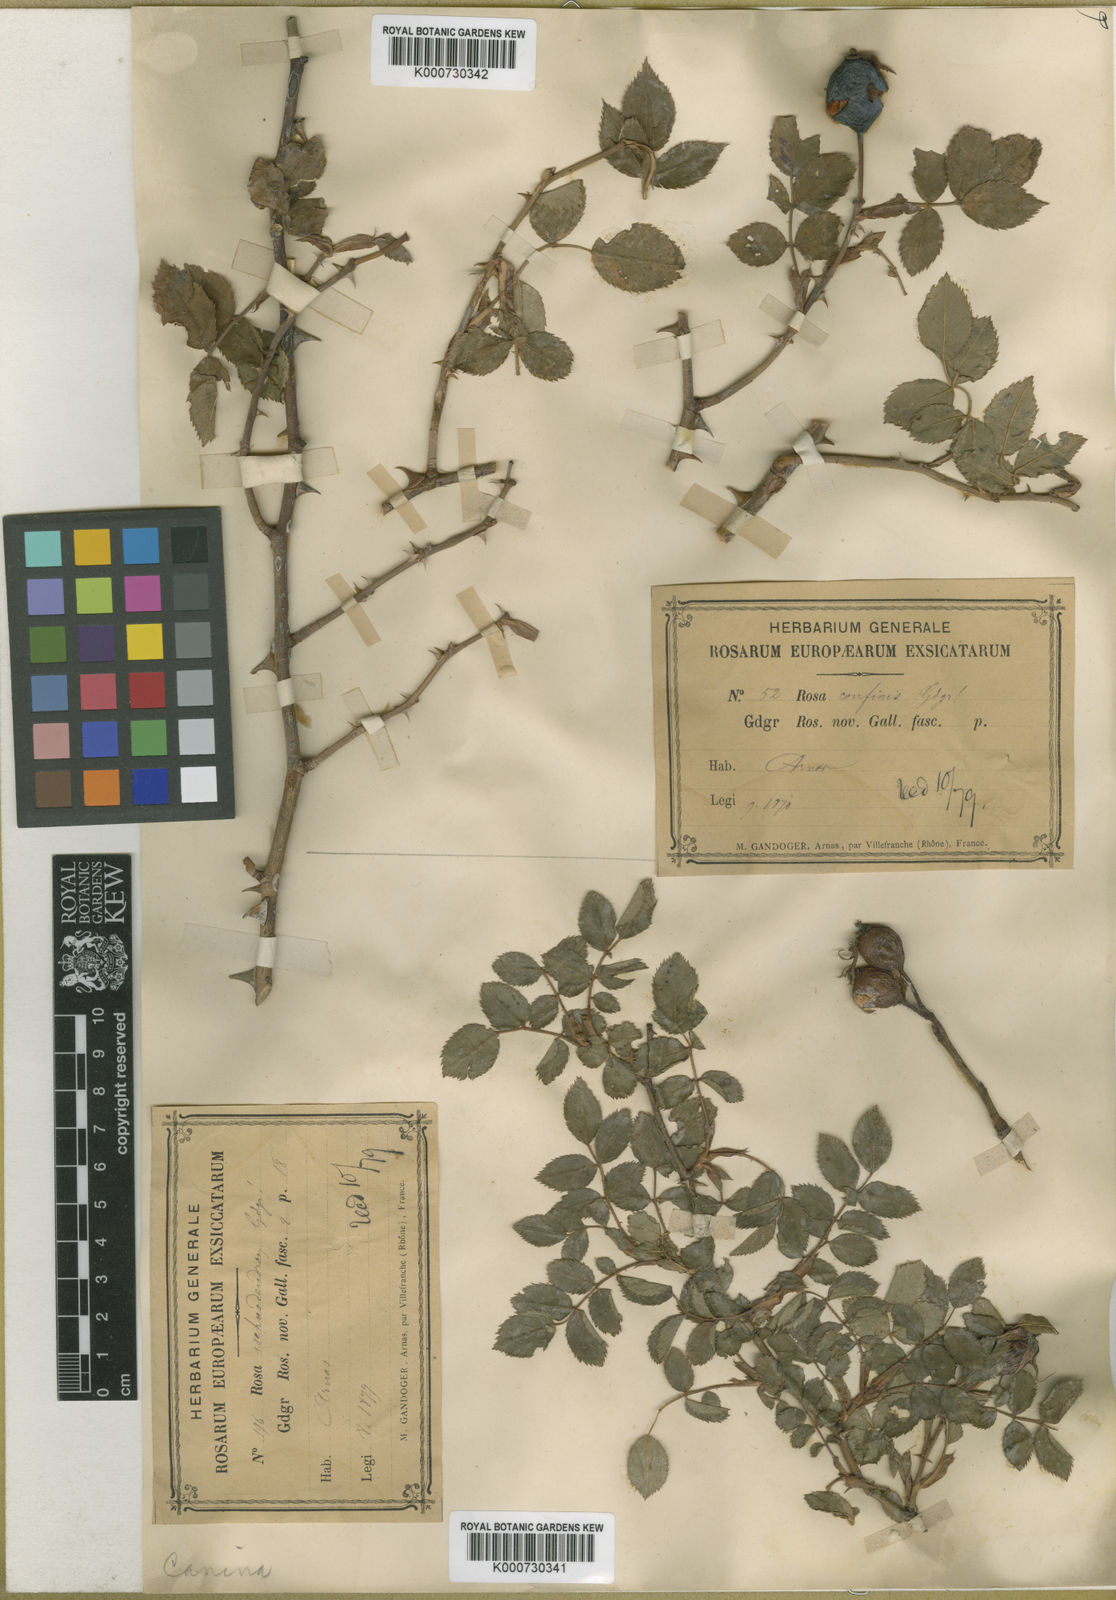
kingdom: Plantae
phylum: Tracheophyta
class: Magnoliopsida
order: Rosales
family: Rosaceae
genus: Rosa
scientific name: Rosa canina
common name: Dog rose
